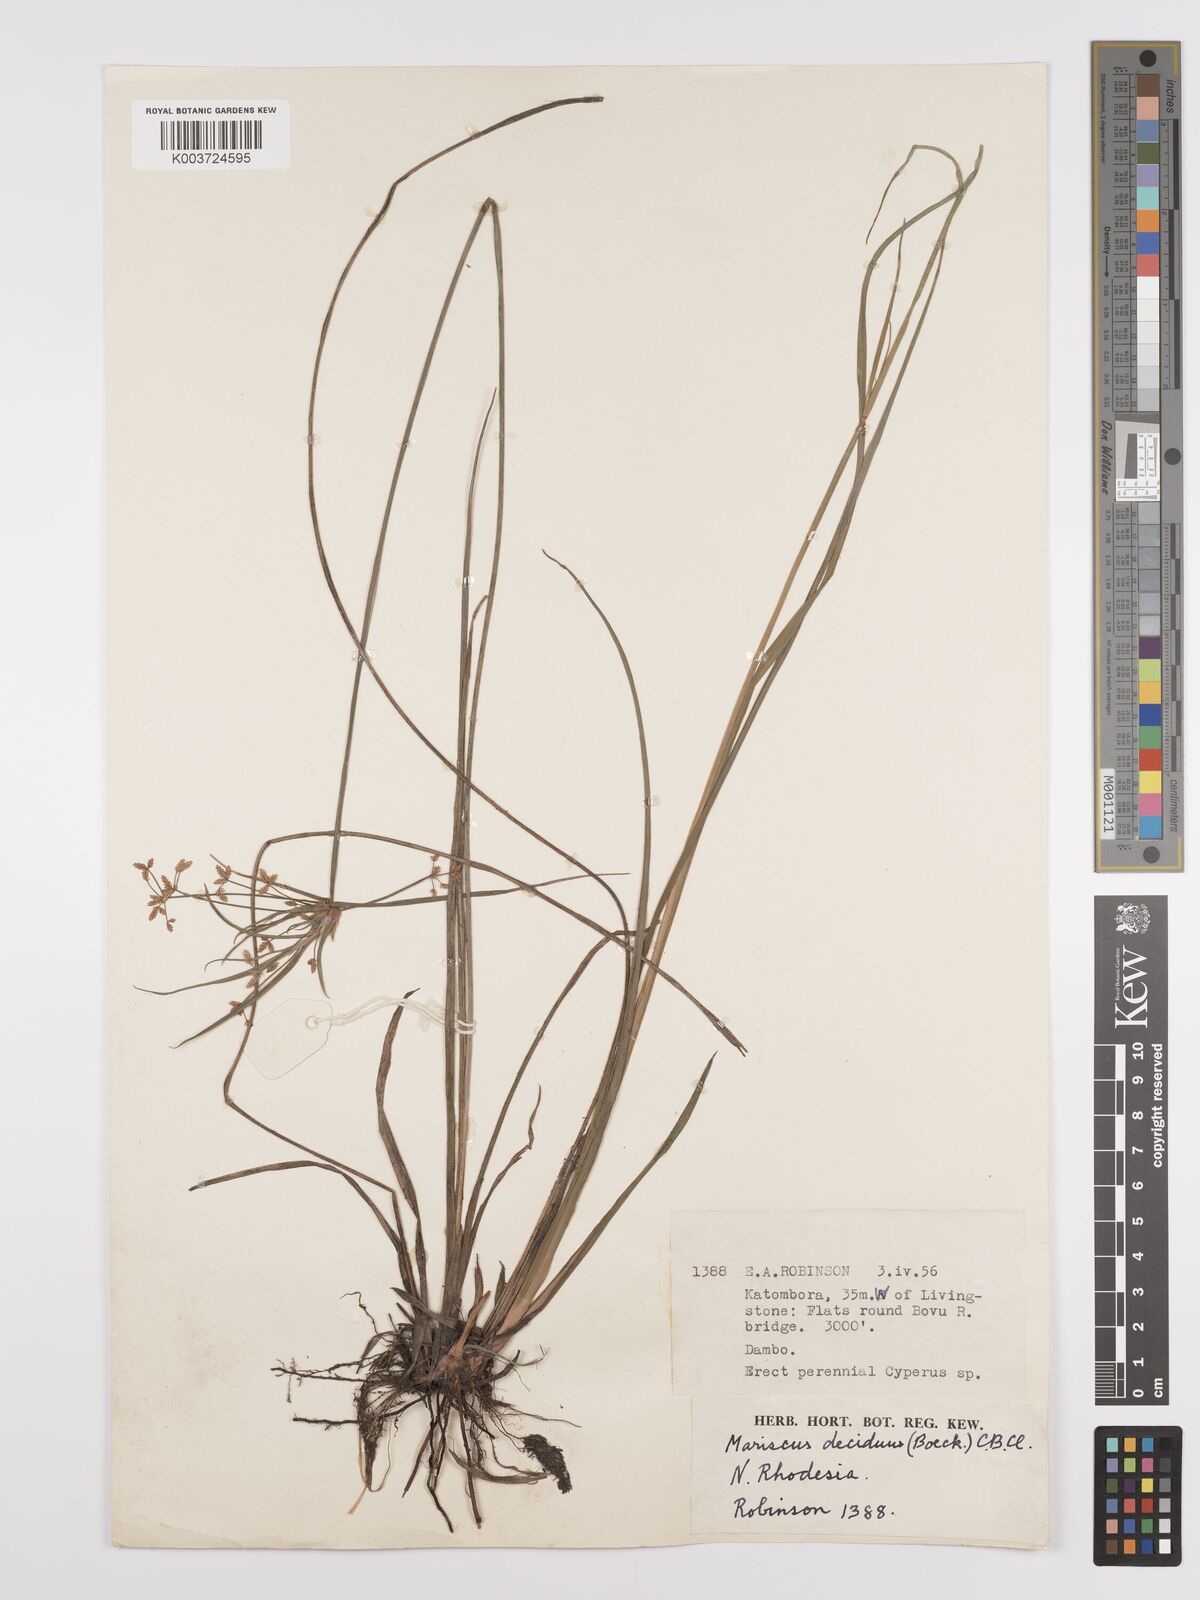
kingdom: Plantae
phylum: Tracheophyta
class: Liliopsida
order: Poales
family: Cyperaceae
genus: Cyperus
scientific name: Cyperus deciduus
